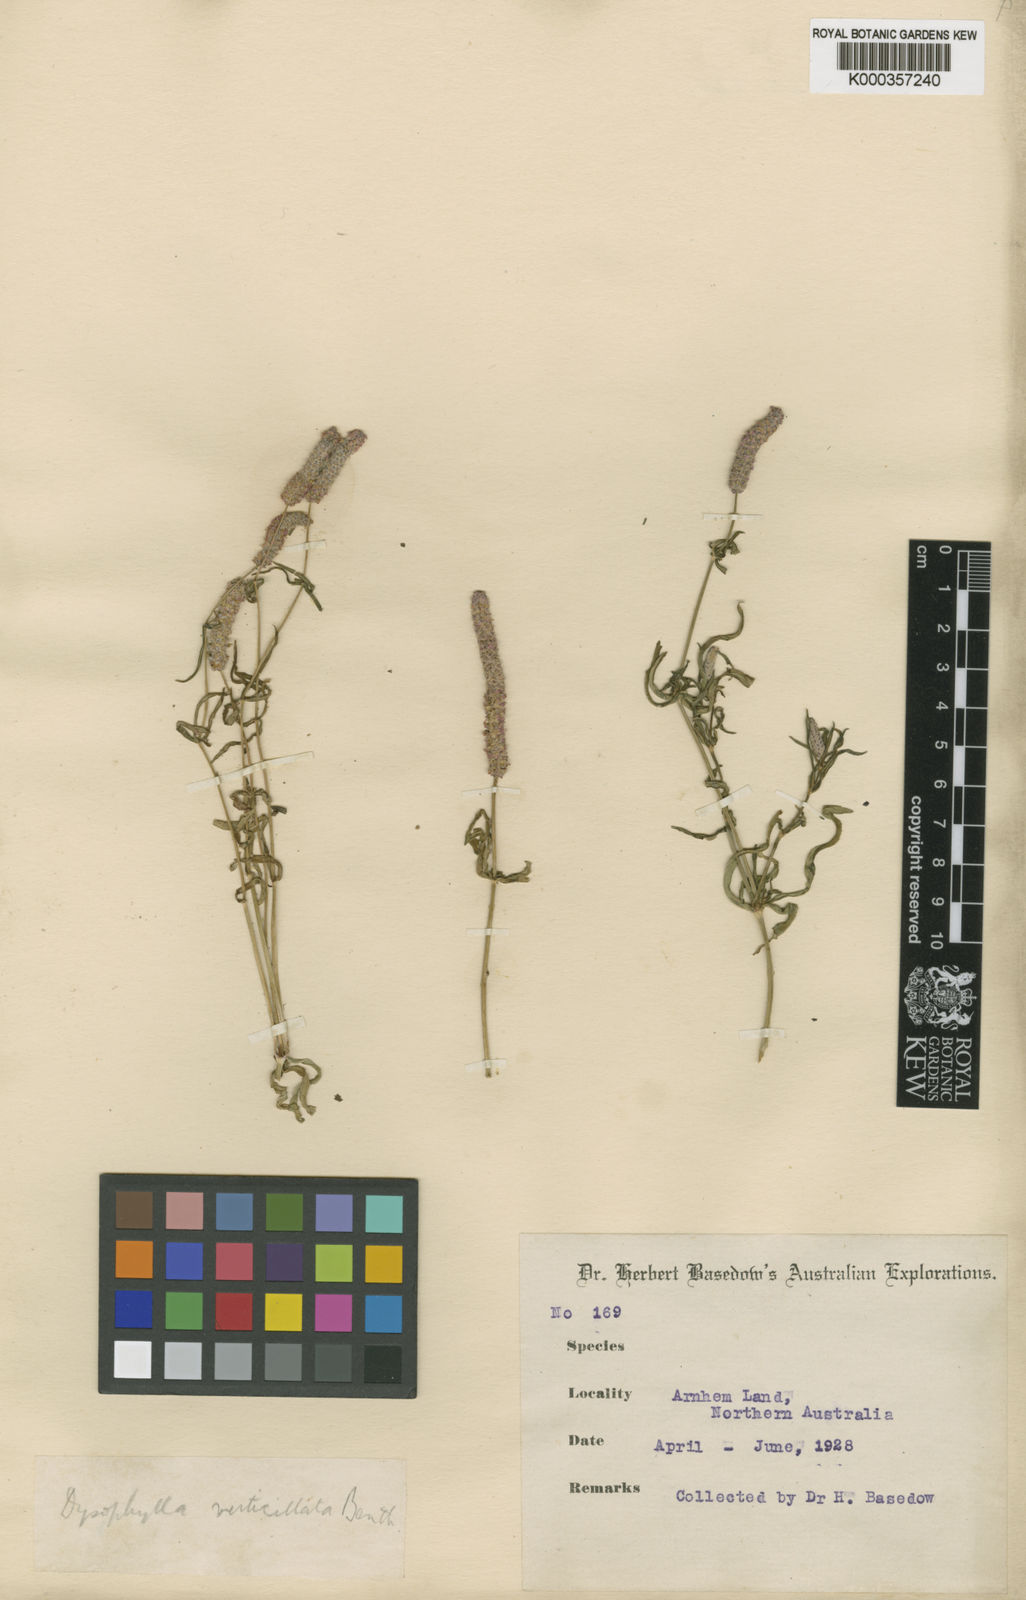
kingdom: Plantae
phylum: Tracheophyta
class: Magnoliopsida
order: Lamiales
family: Lamiaceae
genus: Pogostemon
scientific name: Pogostemon
